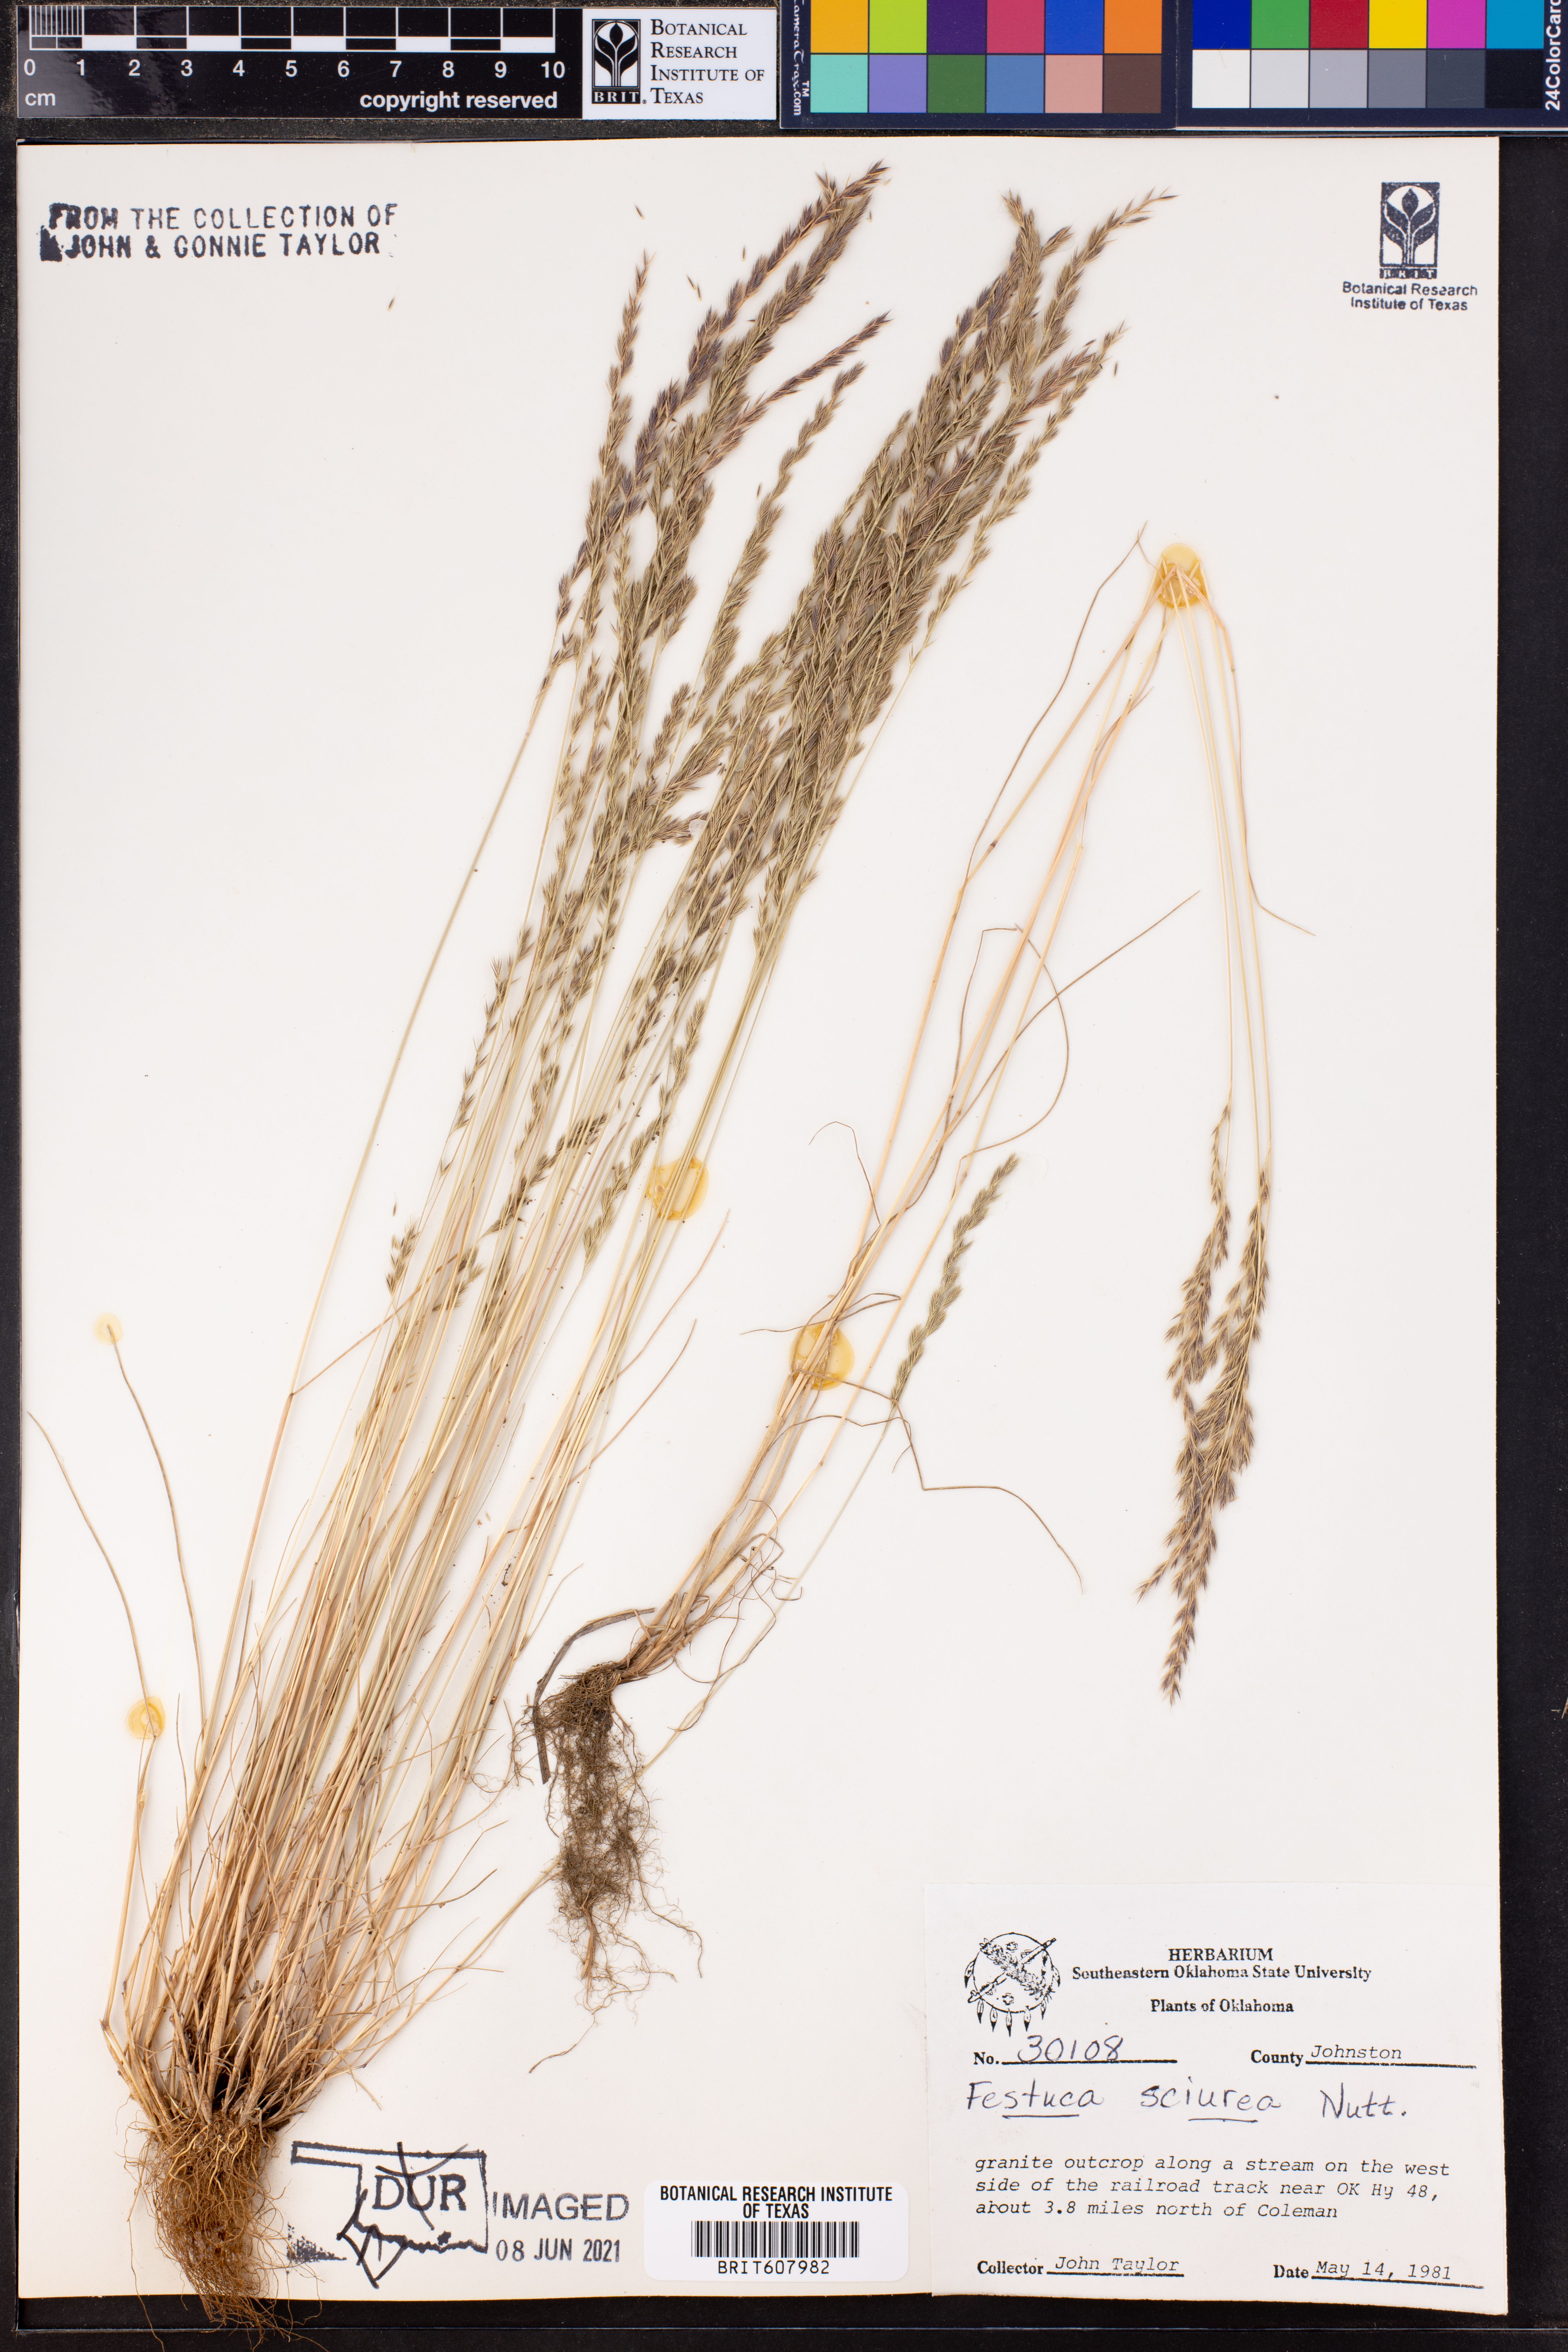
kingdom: Plantae
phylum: Tracheophyta
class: Liliopsida
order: Poales
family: Poaceae
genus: Festuca
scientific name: Festuca sciurea
